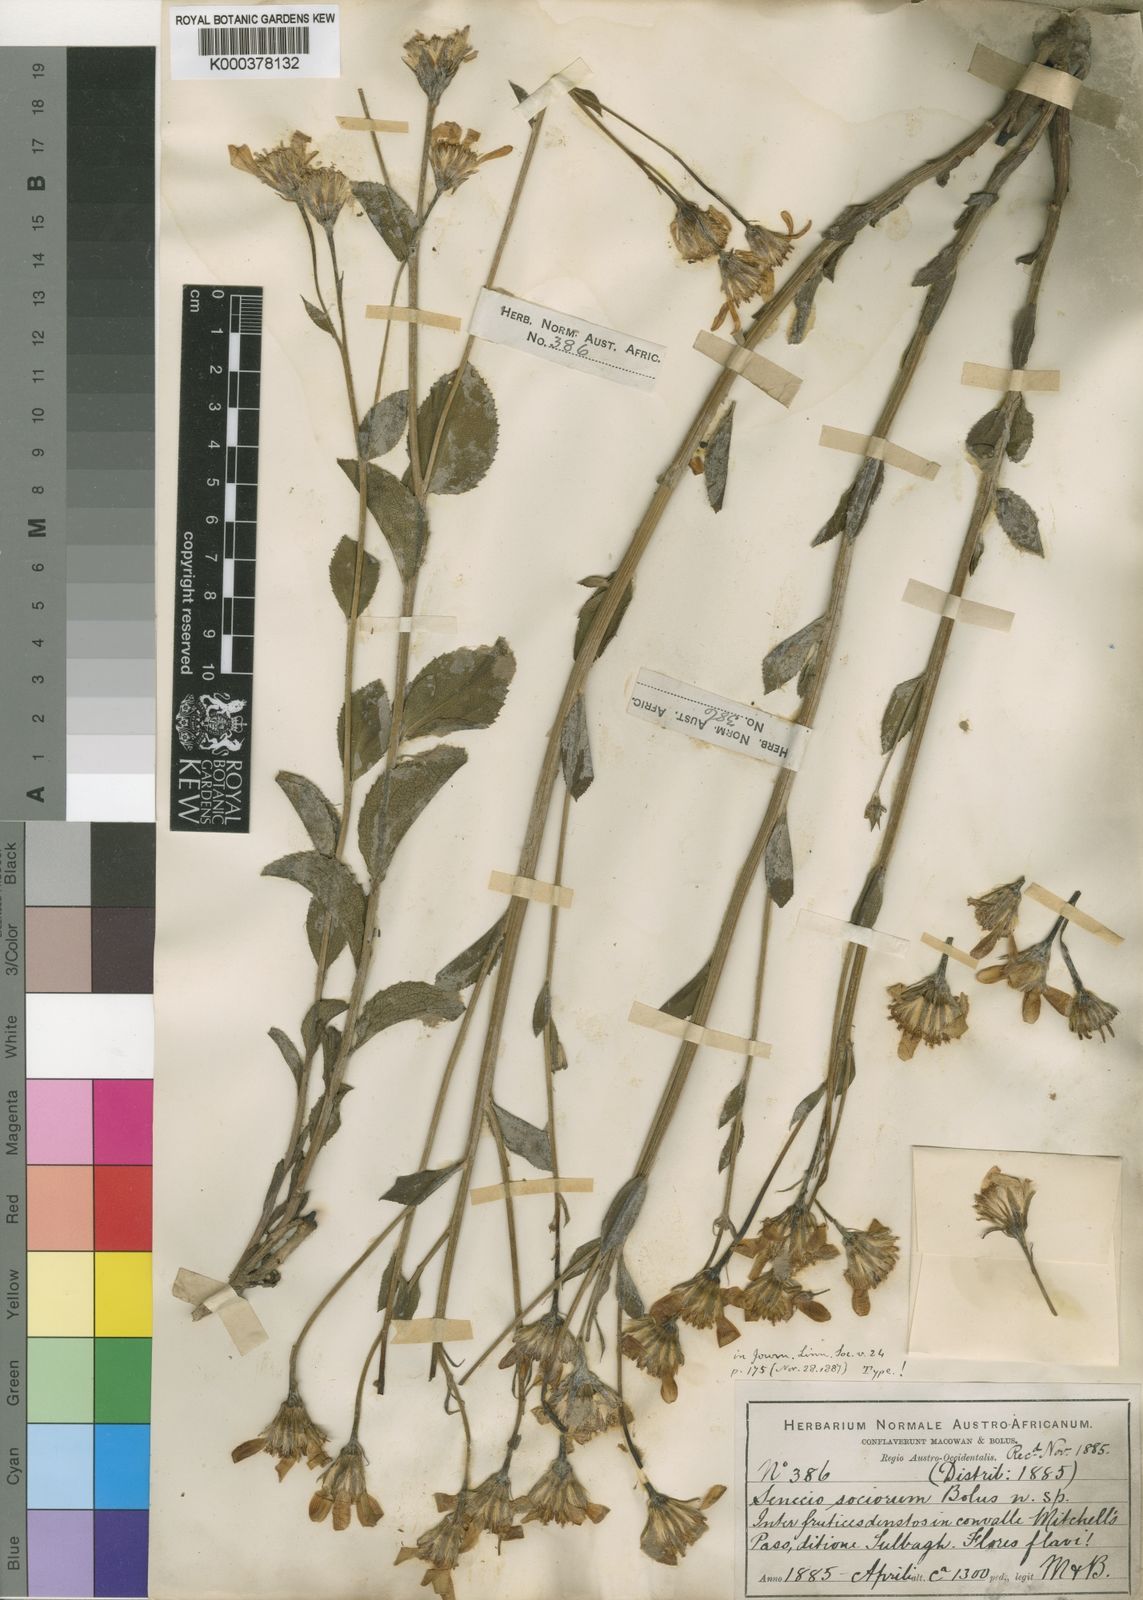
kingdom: Plantae
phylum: Tracheophyta
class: Magnoliopsida
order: Asterales
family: Asteraceae
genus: Senecio
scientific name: Senecio sociorum
